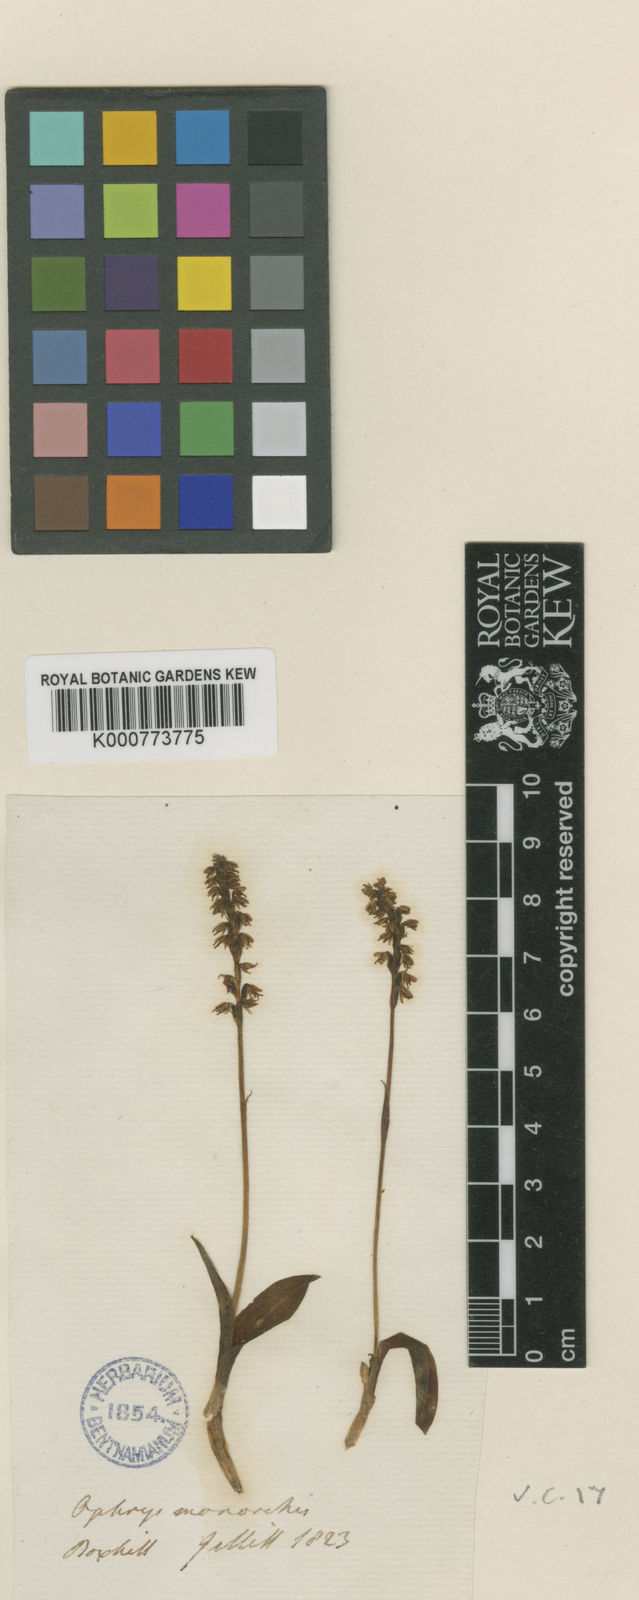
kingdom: Plantae
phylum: Tracheophyta
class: Liliopsida
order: Asparagales
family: Orchidaceae
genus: Herminium
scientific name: Herminium monorchis
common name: Musk orchid
